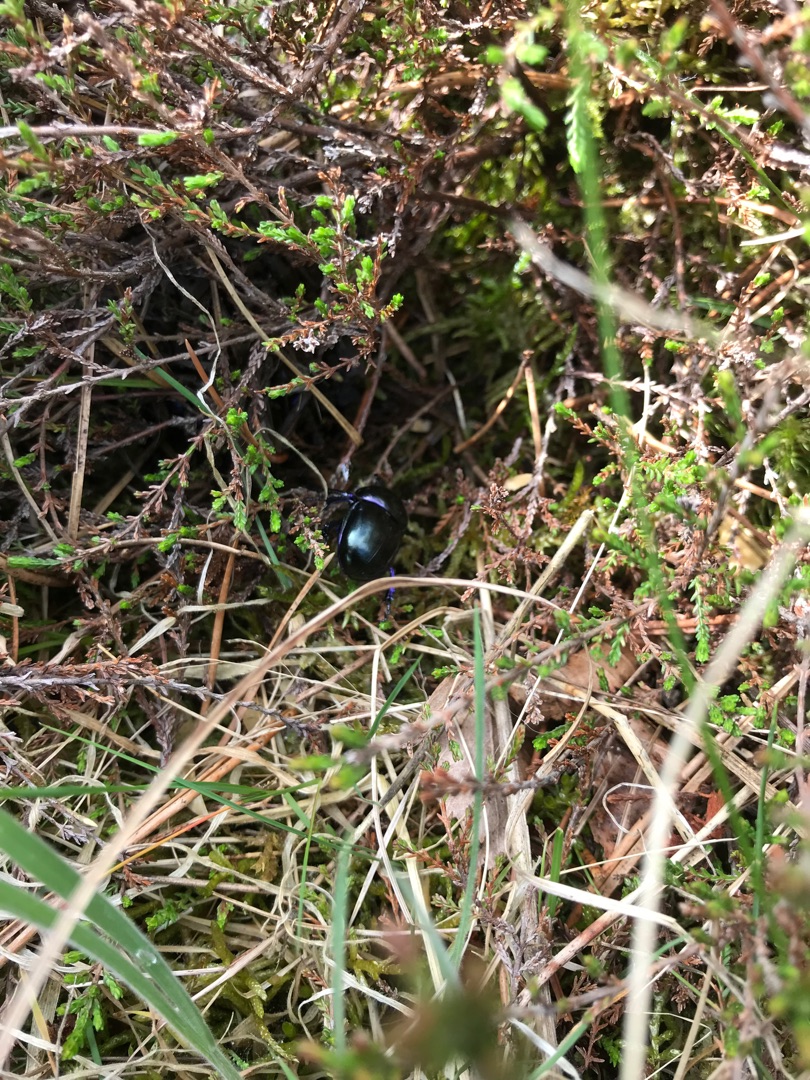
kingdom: Animalia
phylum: Arthropoda
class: Insecta
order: Coleoptera
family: Geotrupidae
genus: Trypocopris
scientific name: Trypocopris vernalis
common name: Glat skarnbasse
